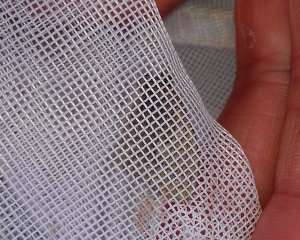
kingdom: Animalia
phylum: Arthropoda
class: Insecta
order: Lepidoptera
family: Nymphalidae
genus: Coenonympha
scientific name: Coenonympha tullia
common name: Large Heath
